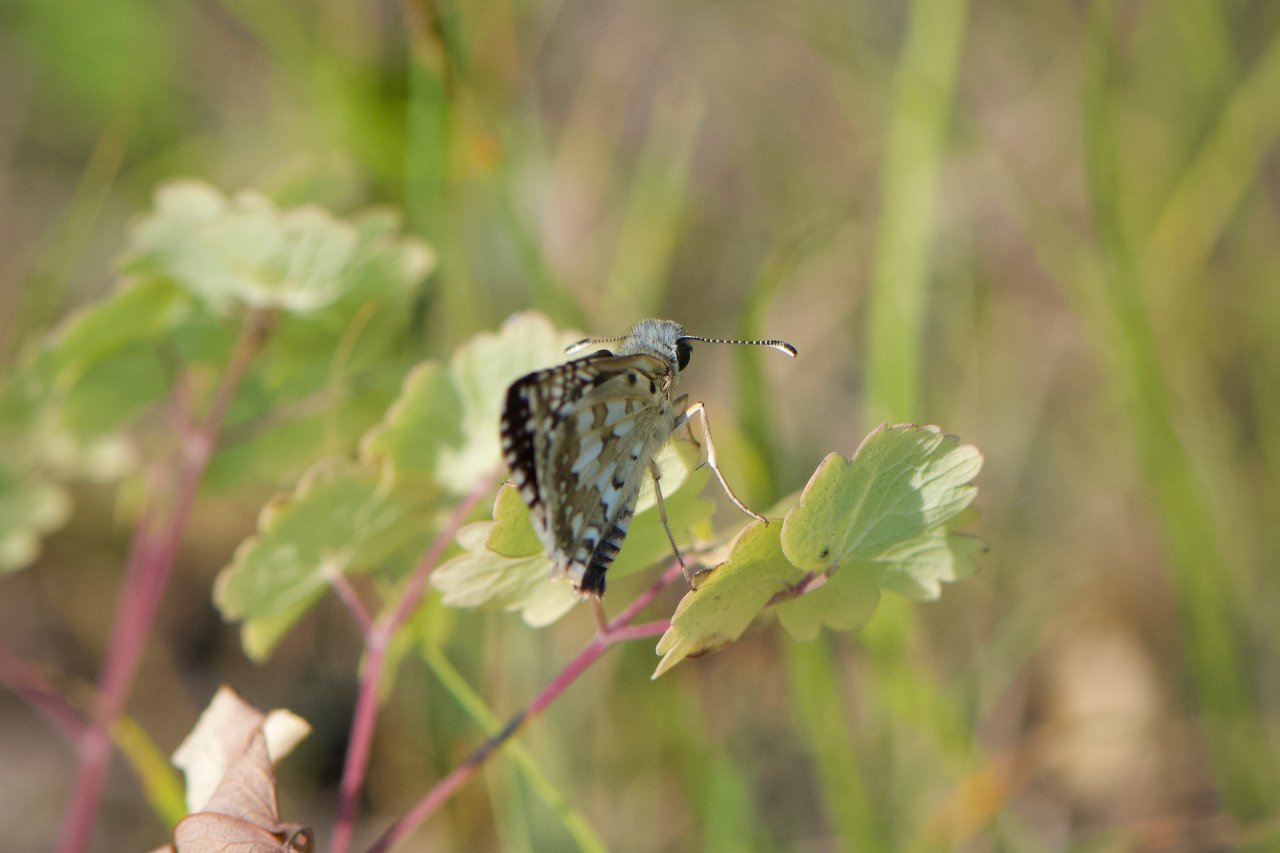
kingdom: Animalia
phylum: Arthropoda
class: Insecta
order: Lepidoptera
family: Hesperiidae
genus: Pyrgus
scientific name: Pyrgus communis
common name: Common Checkered-Skipper
